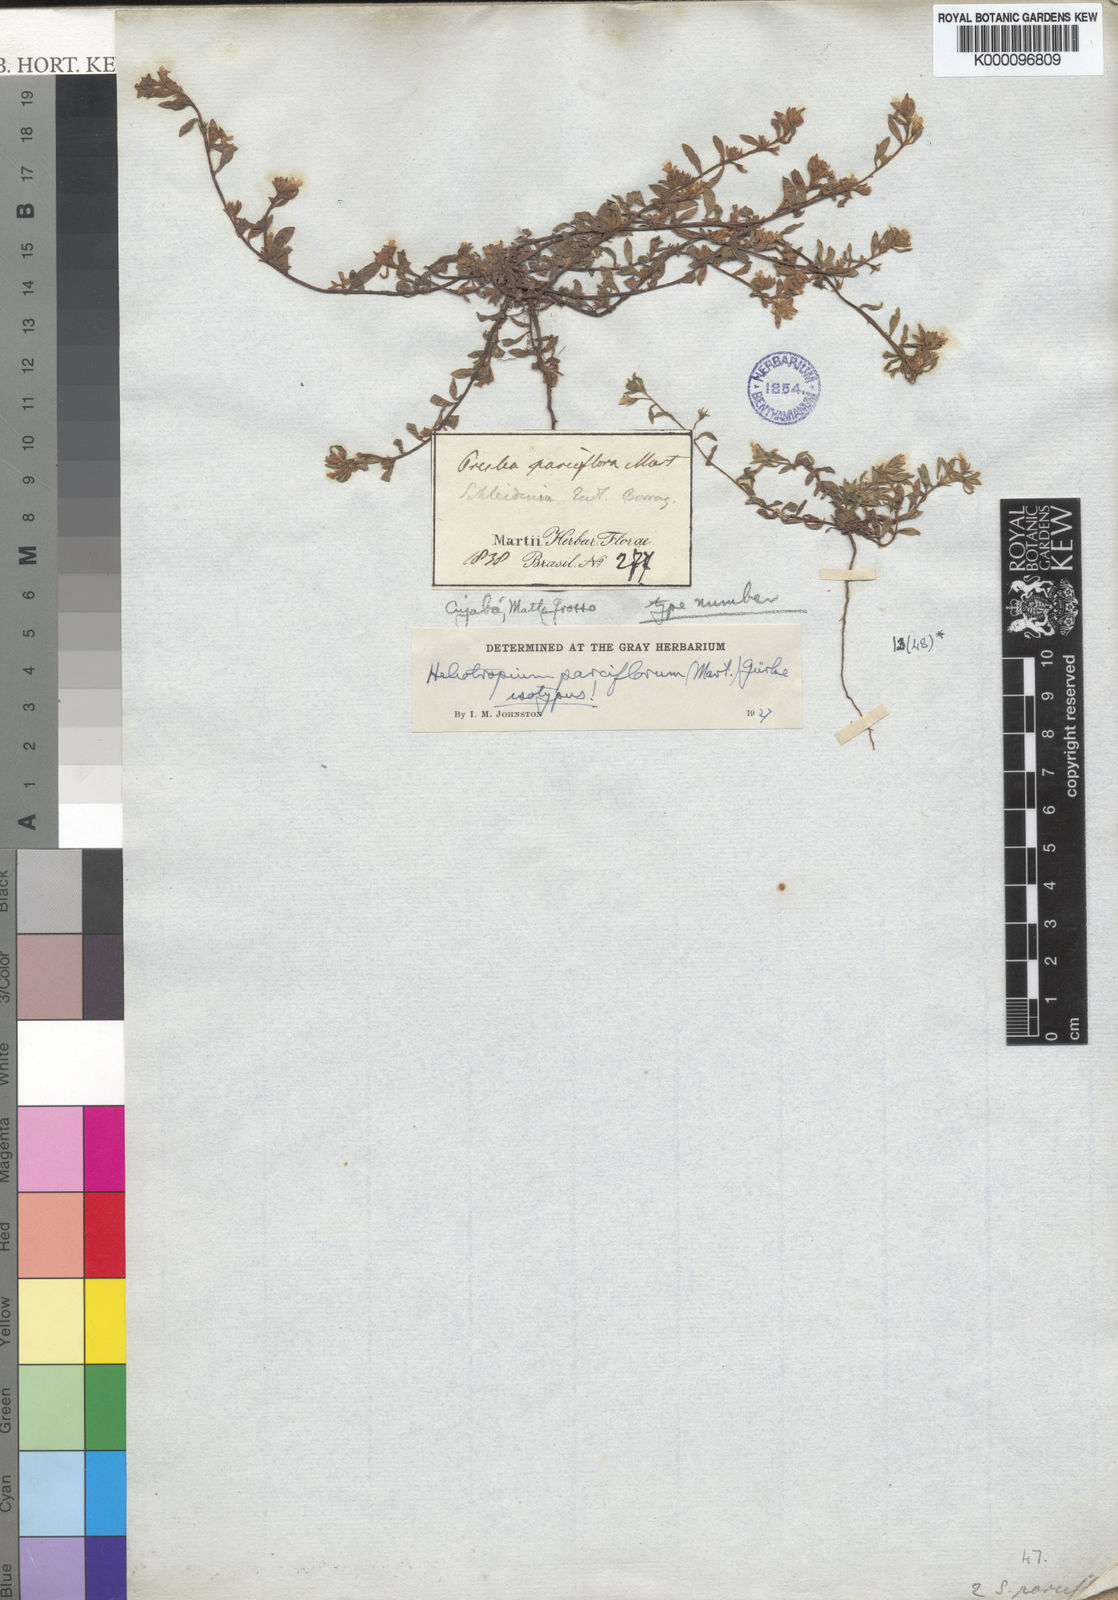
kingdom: Plantae
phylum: Tracheophyta
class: Magnoliopsida
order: Boraginales
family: Heliotropiaceae
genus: Heliotropium
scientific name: Heliotropium
